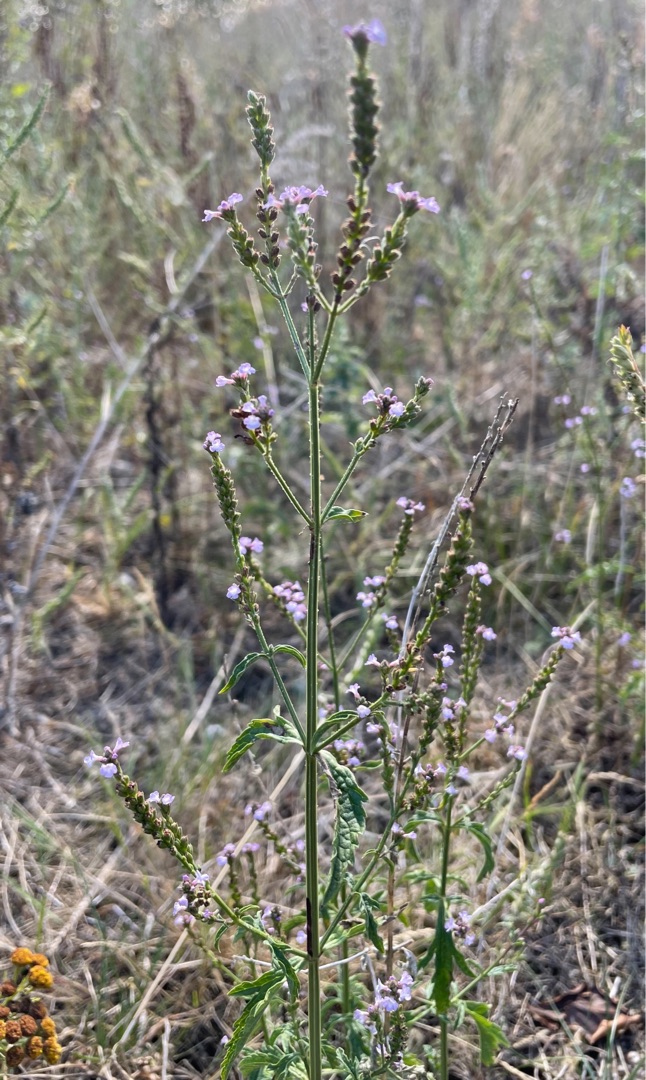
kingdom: Plantae
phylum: Tracheophyta
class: Magnoliopsida
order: Lamiales
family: Verbenaceae
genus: Verbena
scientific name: Verbena officinalis
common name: Læge-jernurt
